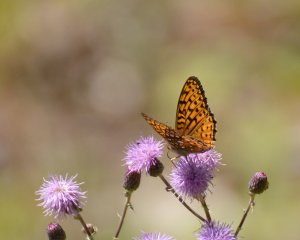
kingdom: Animalia
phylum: Arthropoda
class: Insecta
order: Lepidoptera
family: Nymphalidae
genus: Speyeria
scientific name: Speyeria atlantis
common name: Atlantis Fritillary
